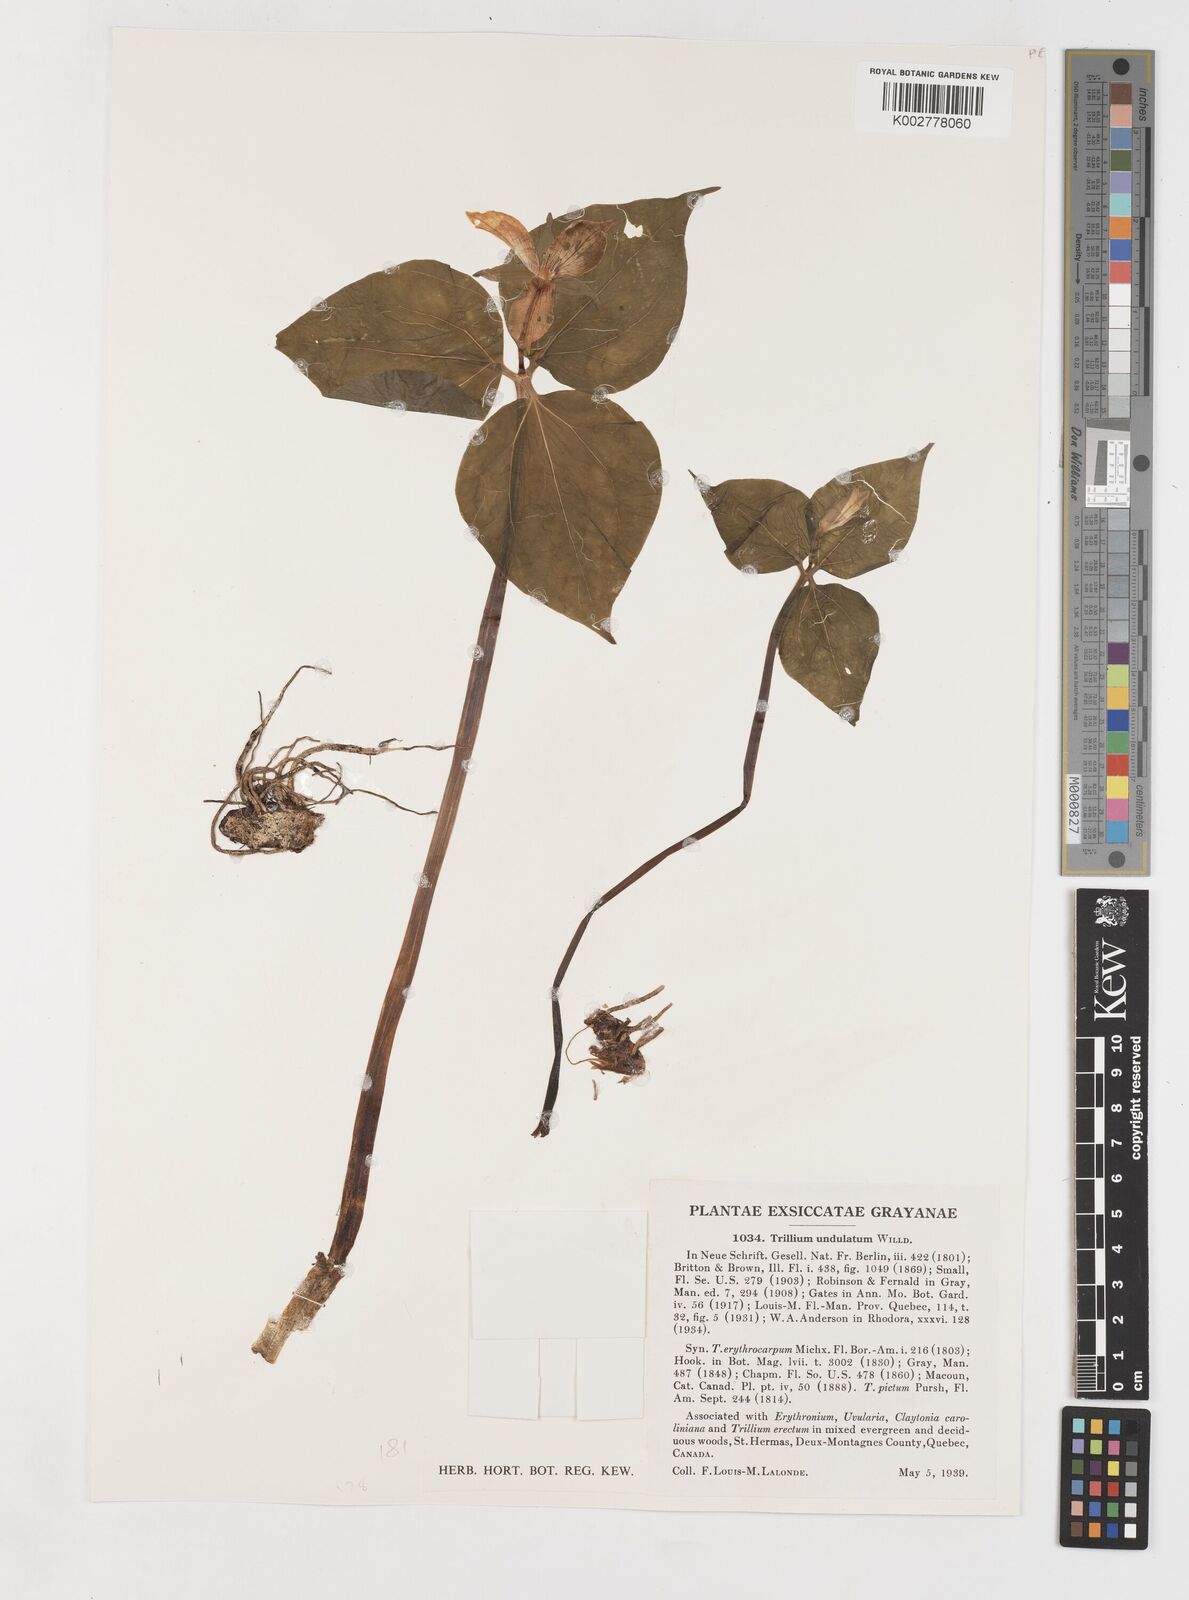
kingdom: Plantae
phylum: Tracheophyta
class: Liliopsida
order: Liliales
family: Melanthiaceae
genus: Trillium
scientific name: Trillium undulatum
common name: Paint trillium
